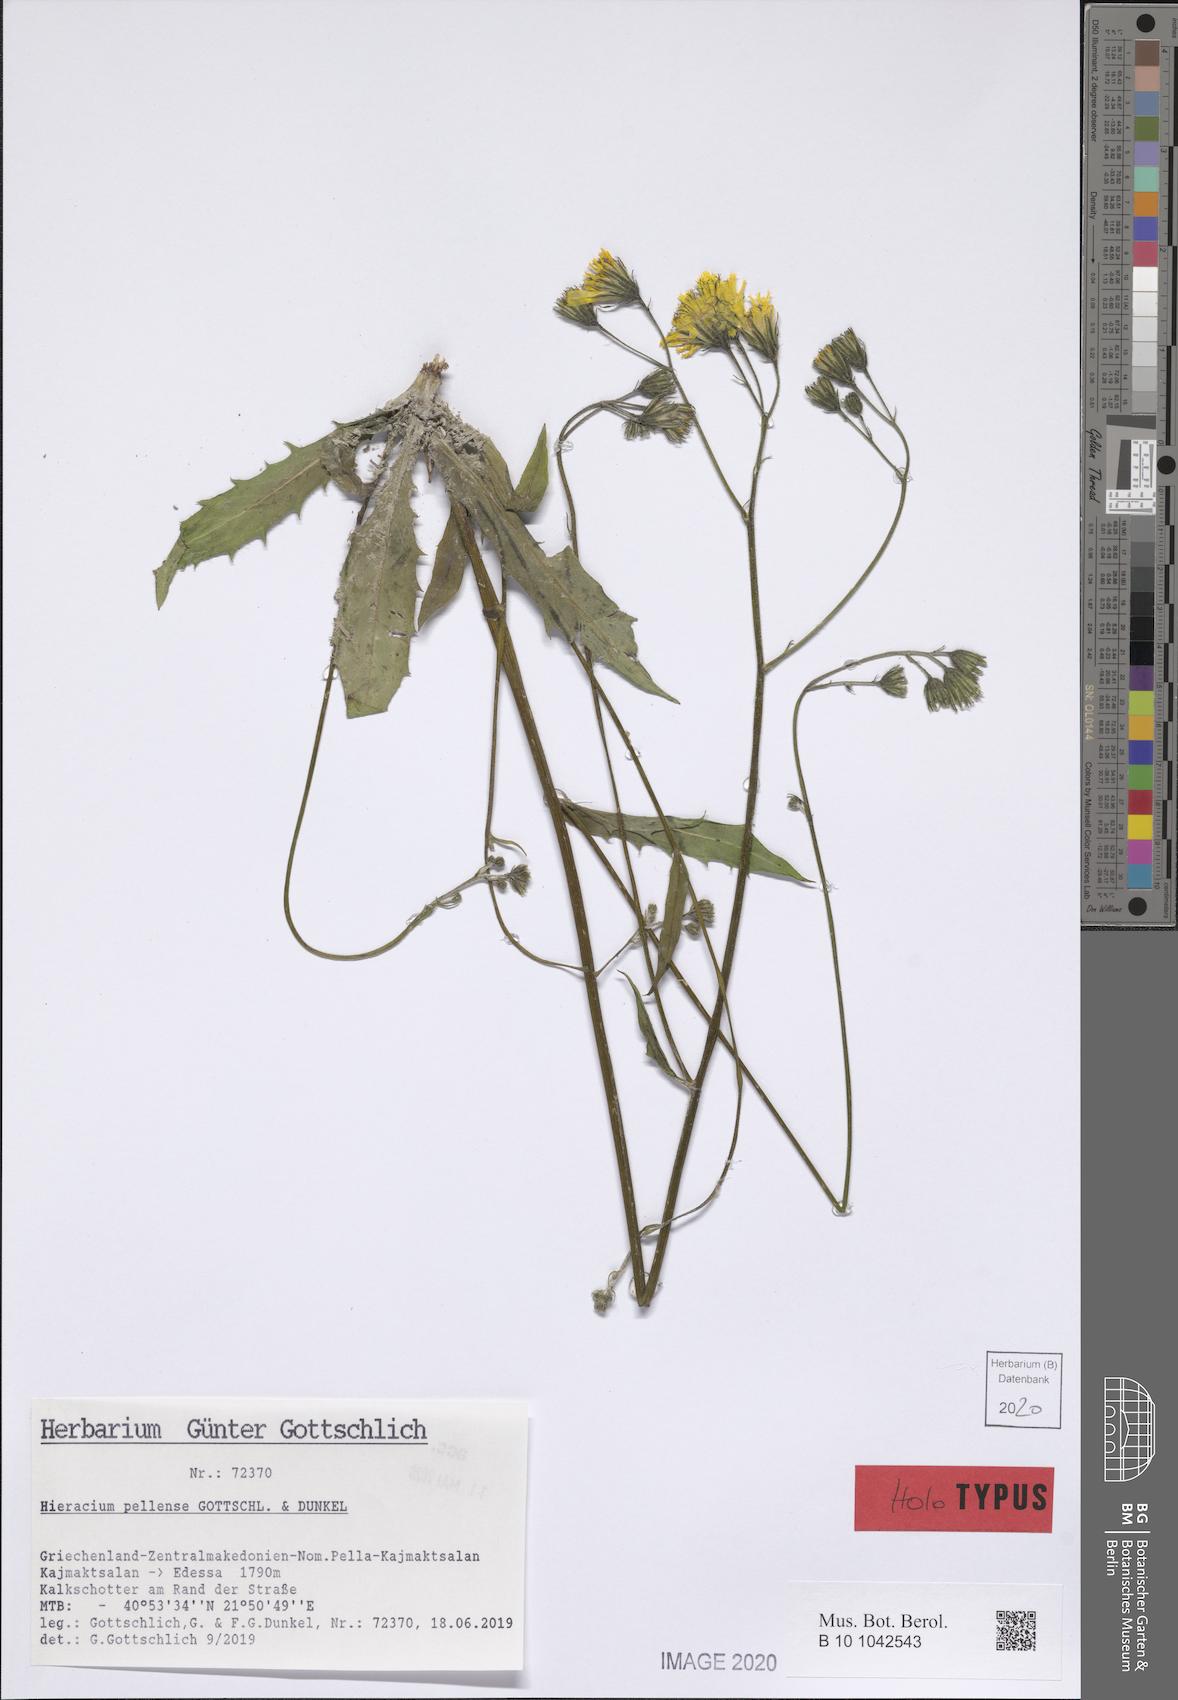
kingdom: Plantae
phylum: Tracheophyta
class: Magnoliopsida
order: Asterales
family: Asteraceae
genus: Hieracium
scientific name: Hieracium pellense
